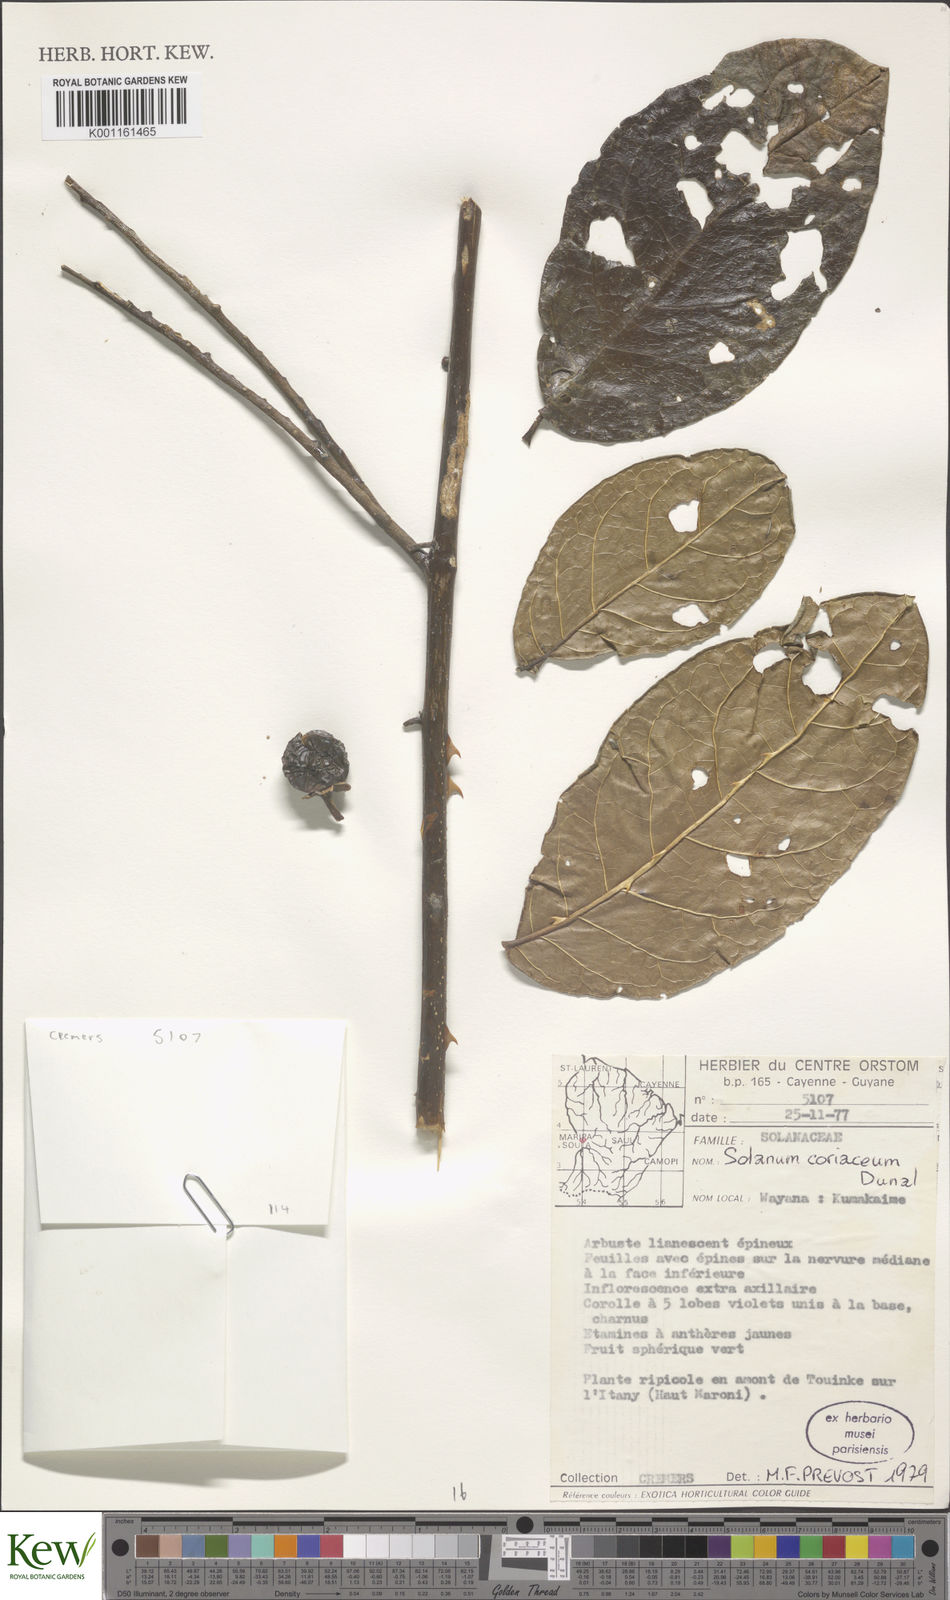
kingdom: Plantae
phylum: Tracheophyta
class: Magnoliopsida
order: Solanales
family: Solanaceae
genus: Solanum
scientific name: Solanum coriaceum
